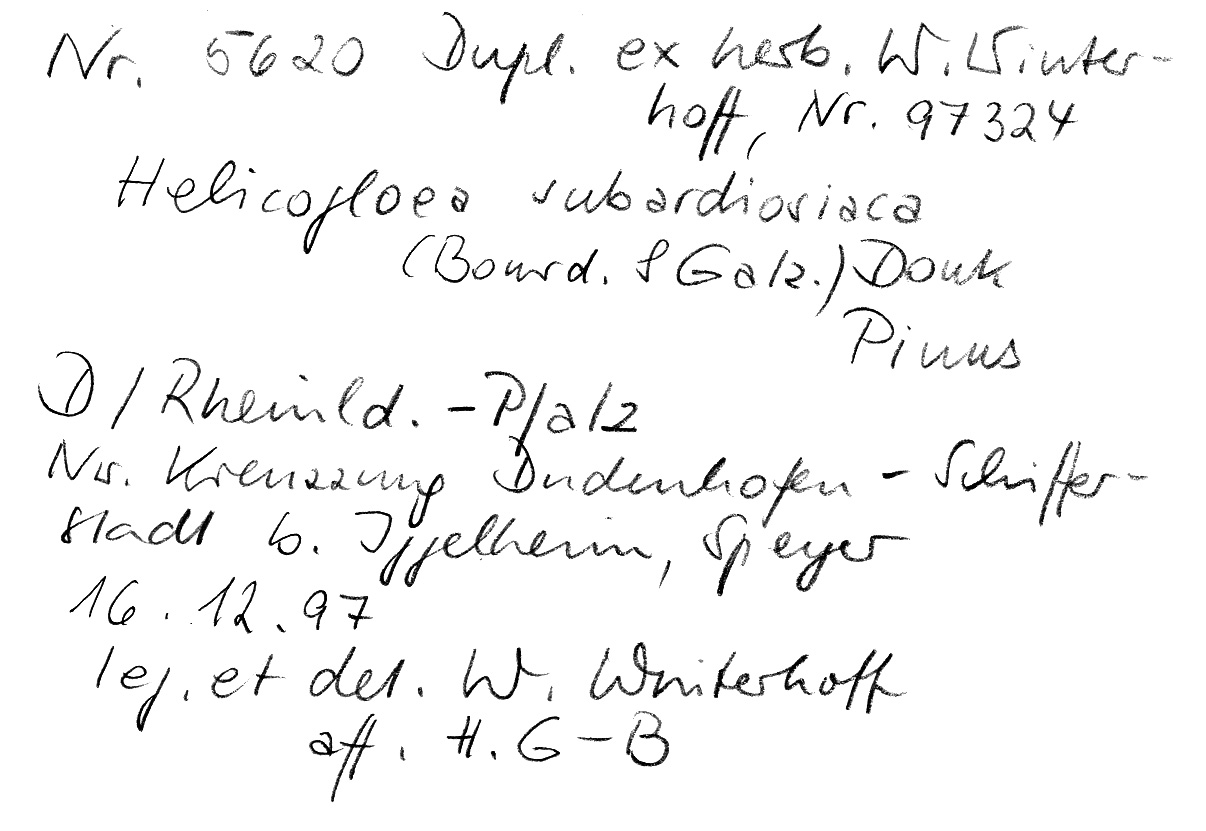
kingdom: Fungi
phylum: Basidiomycota
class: Atractiellomycetes
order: Atractiellales
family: Phleogenaceae
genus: Helicogloea
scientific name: Helicogloea subardosiaca
